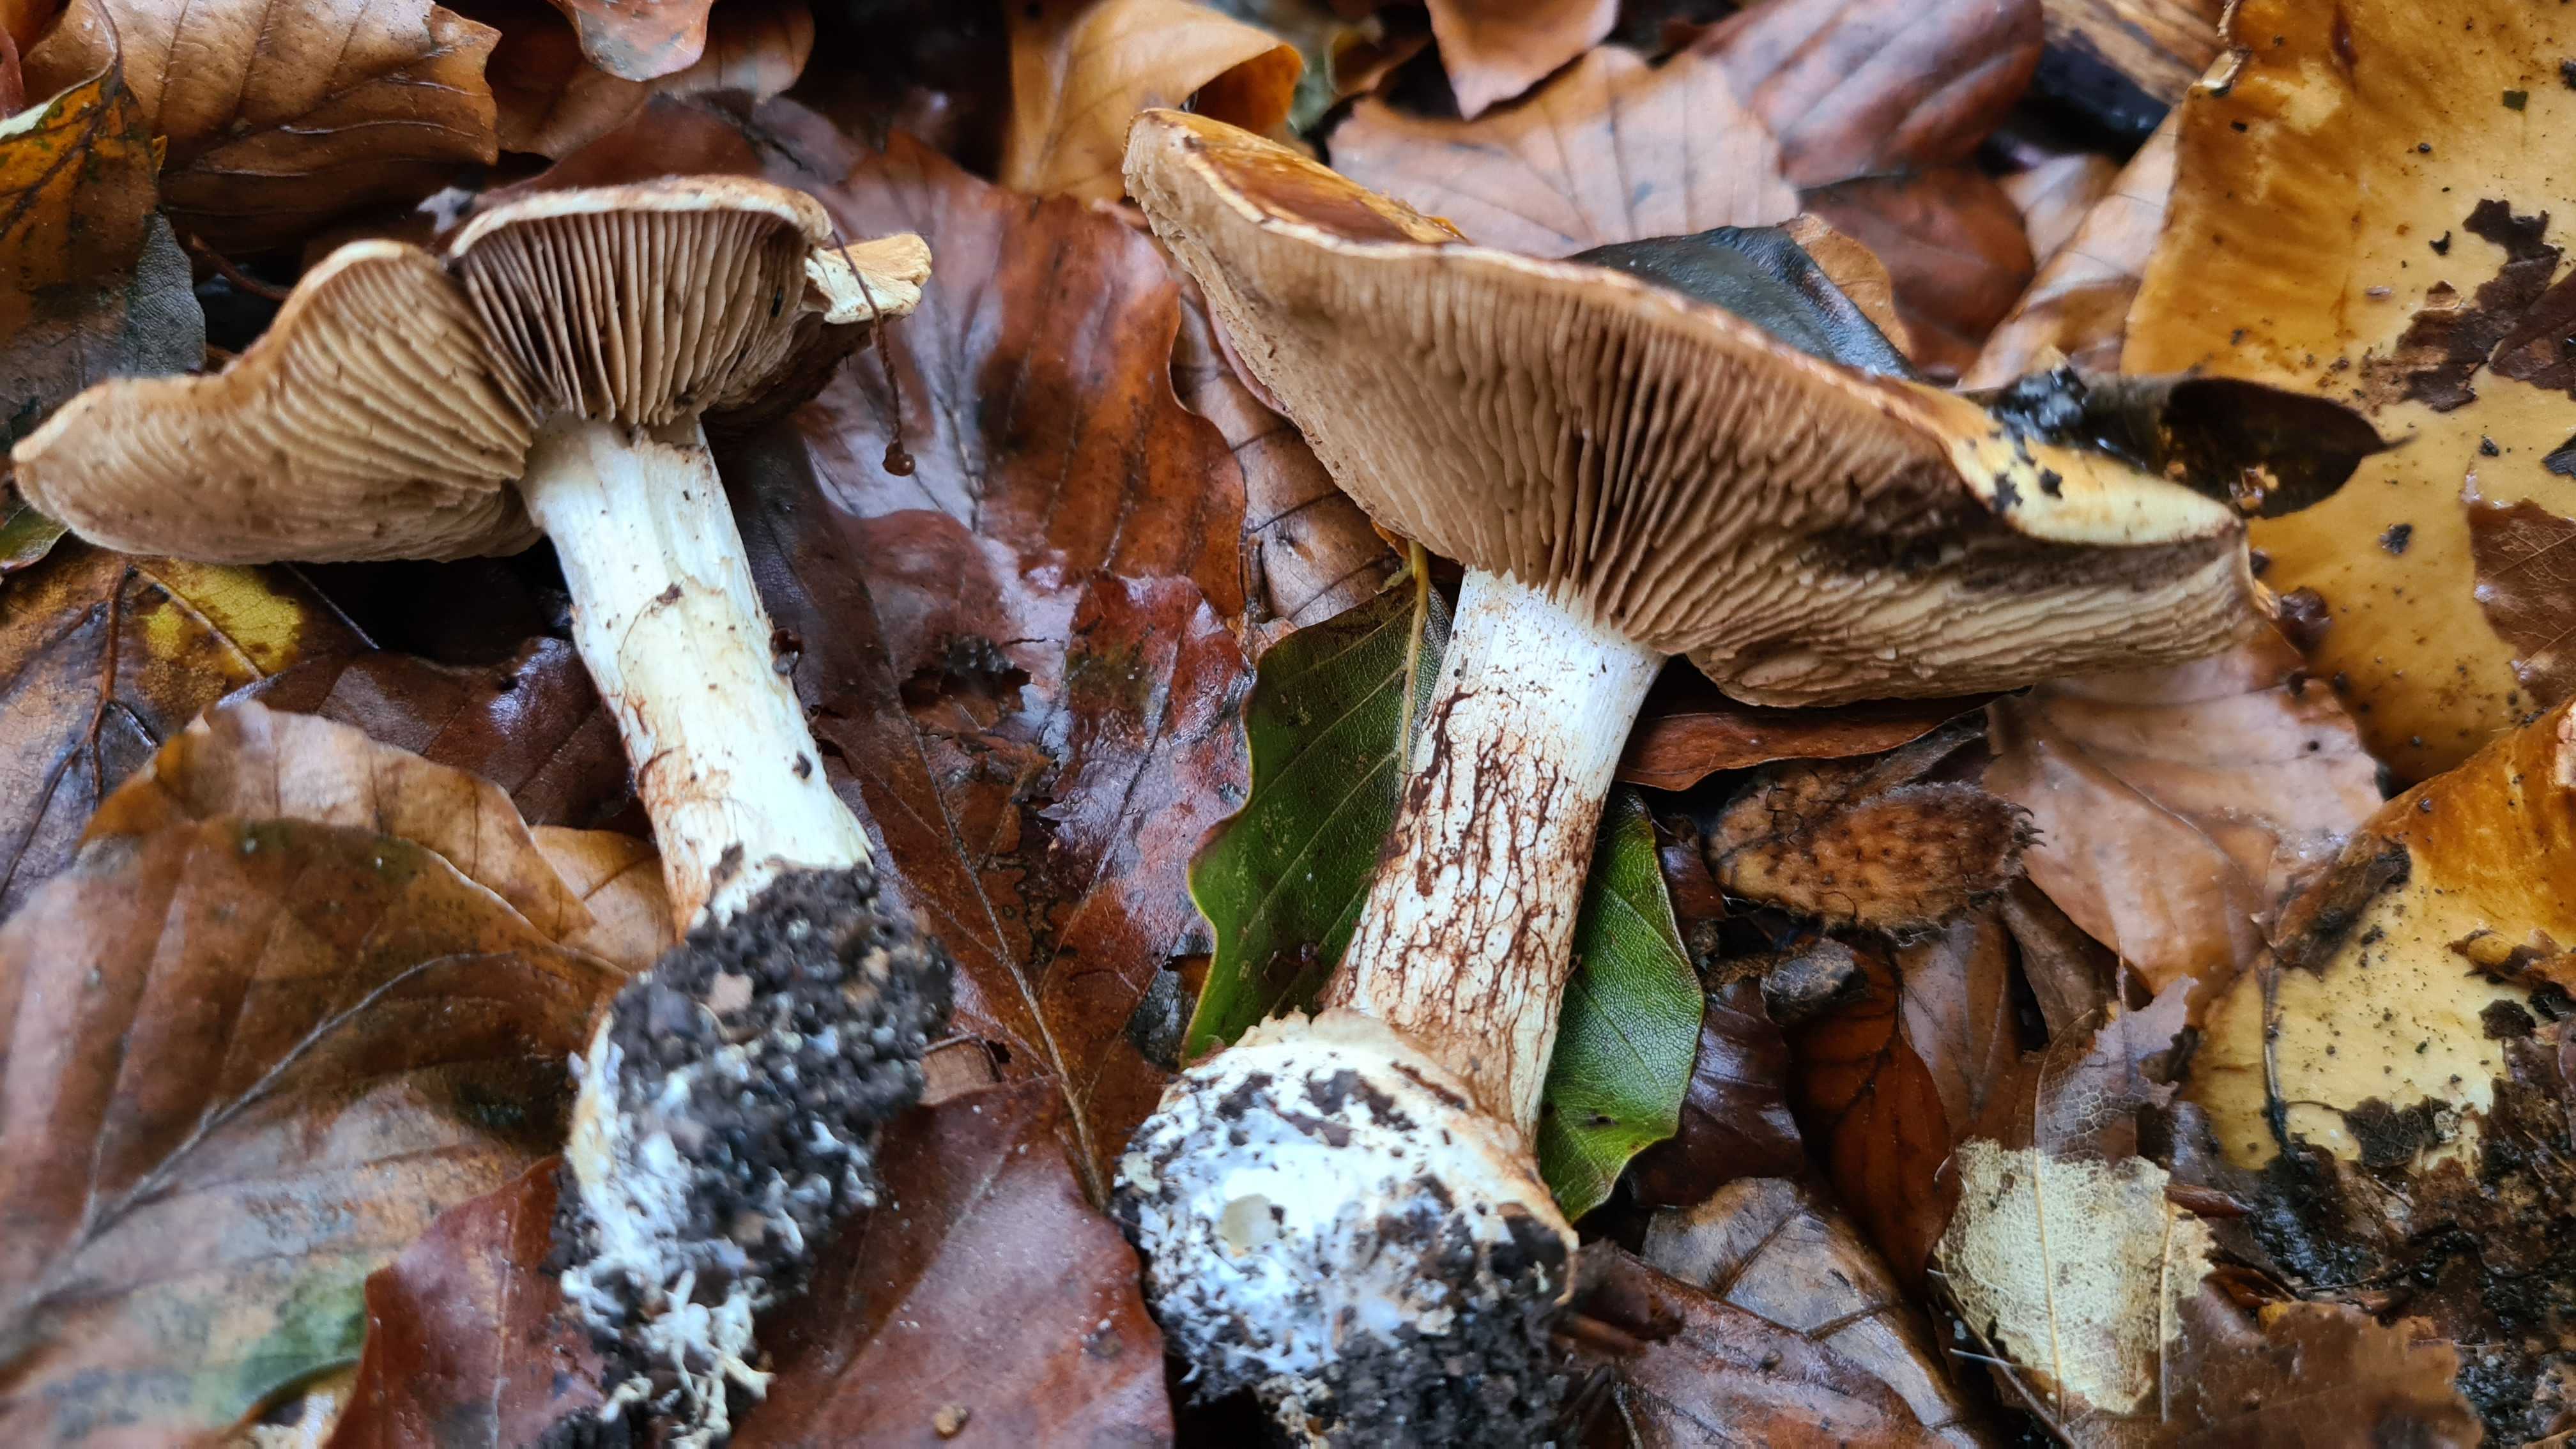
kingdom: Fungi
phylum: Basidiomycota
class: Agaricomycetes
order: Agaricales
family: Cortinariaceae
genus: Cortinarius
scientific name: Cortinarius anserinus
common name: bøge-slørhat
